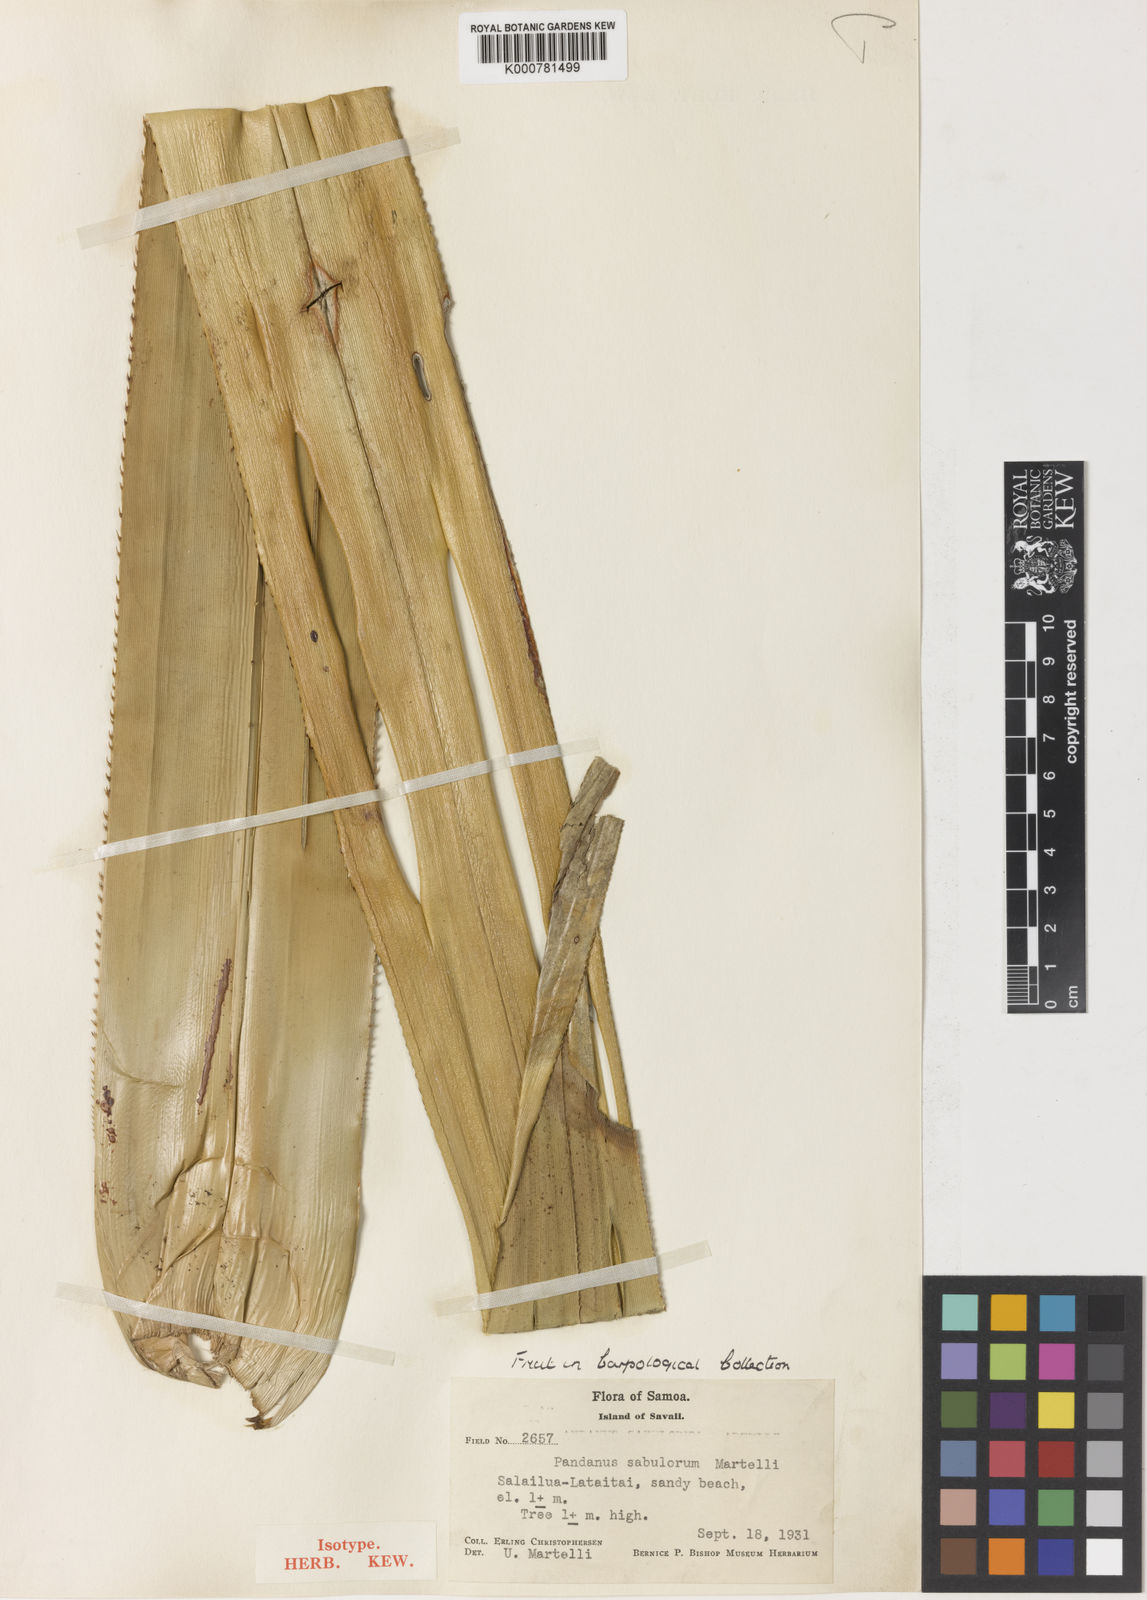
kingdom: Plantae
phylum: Tracheophyta
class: Liliopsida
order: Pandanales
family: Pandanaceae
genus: Pandanus
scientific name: Pandanus subulorum
